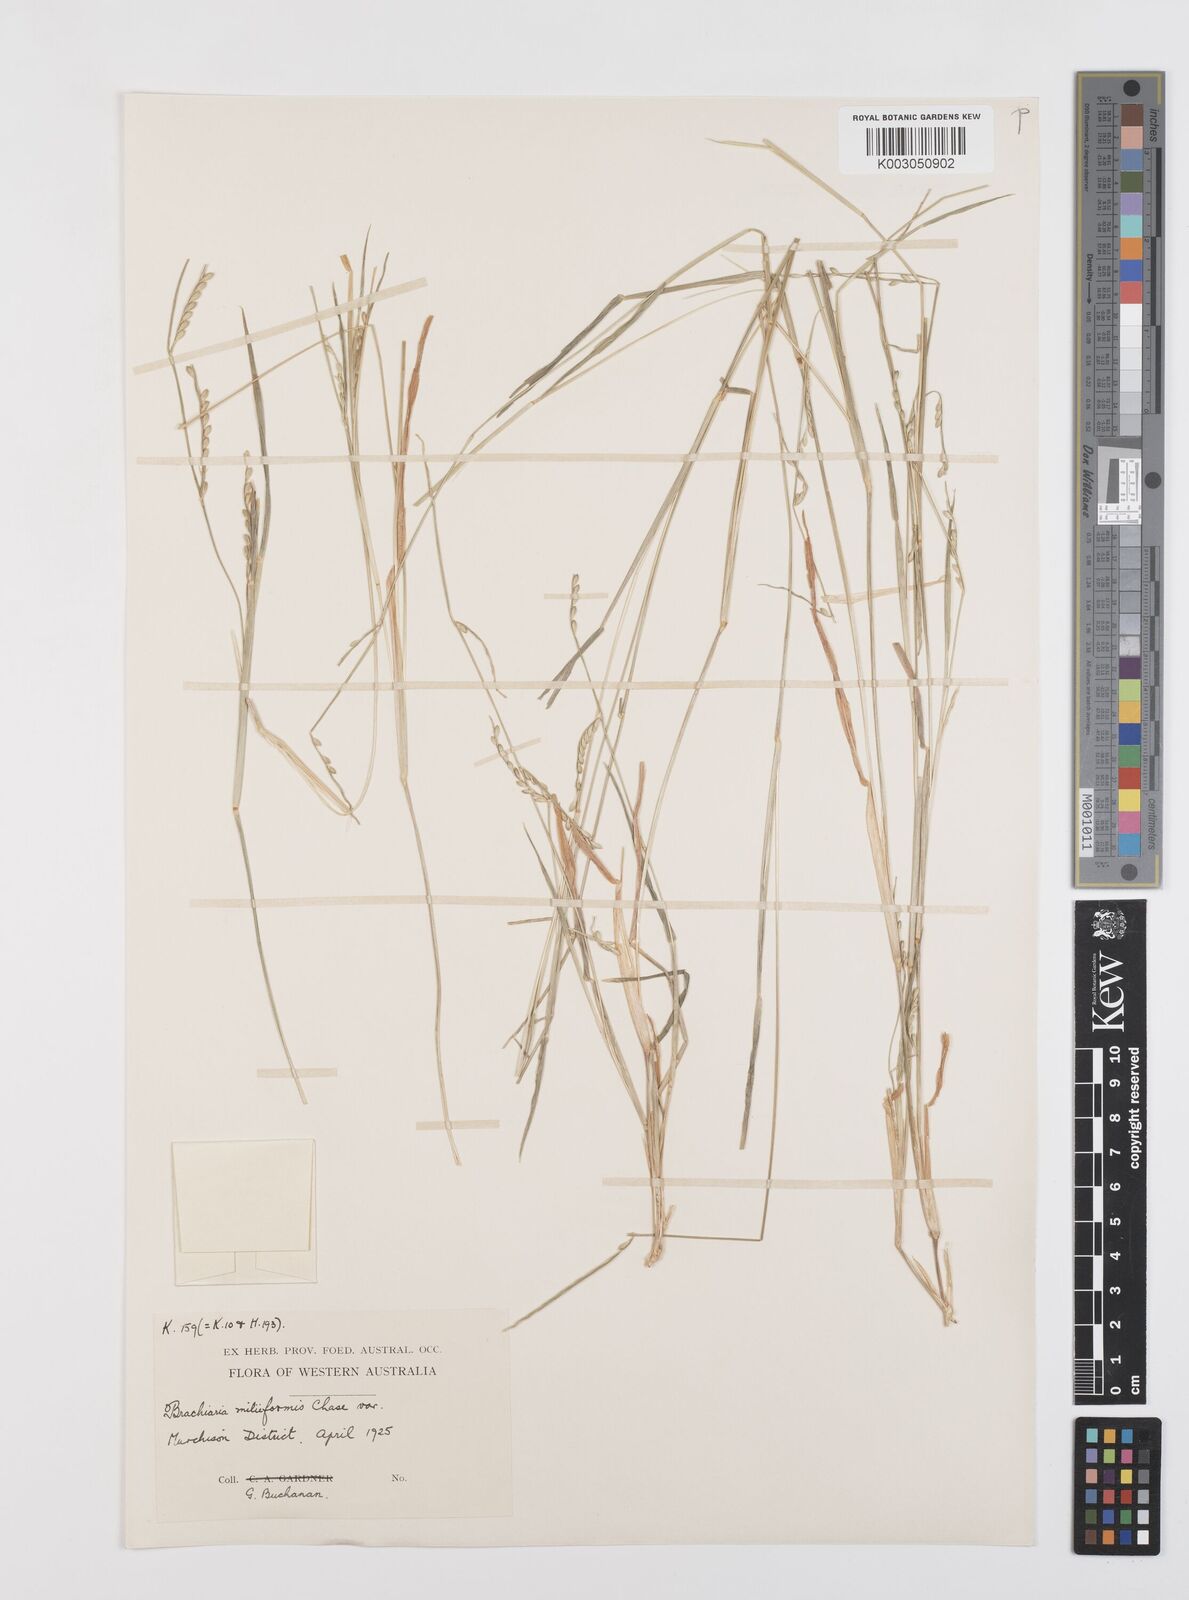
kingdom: Plantae
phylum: Tracheophyta
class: Liliopsida
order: Poales
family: Poaceae
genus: Urochloa
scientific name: Urochloa subquadripara
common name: Armgrass millet
